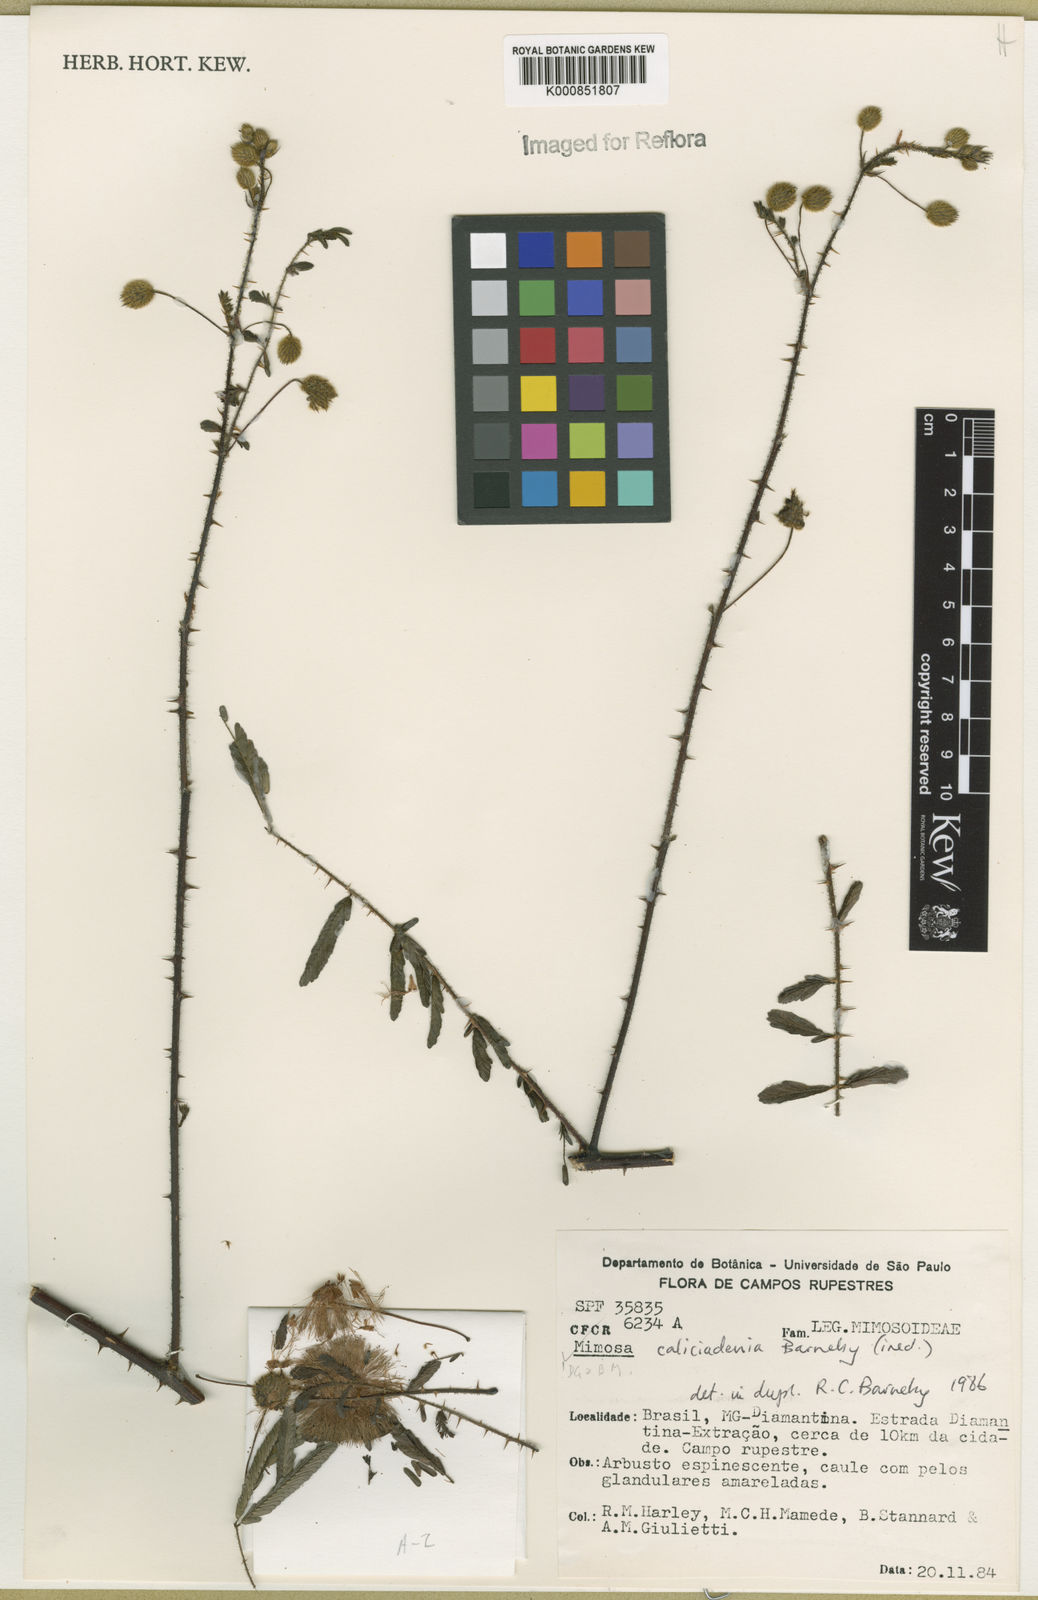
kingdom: Plantae
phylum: Tracheophyta
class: Magnoliopsida
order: Fabales
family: Fabaceae
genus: Mimosa
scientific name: Mimosa caliciadenia
